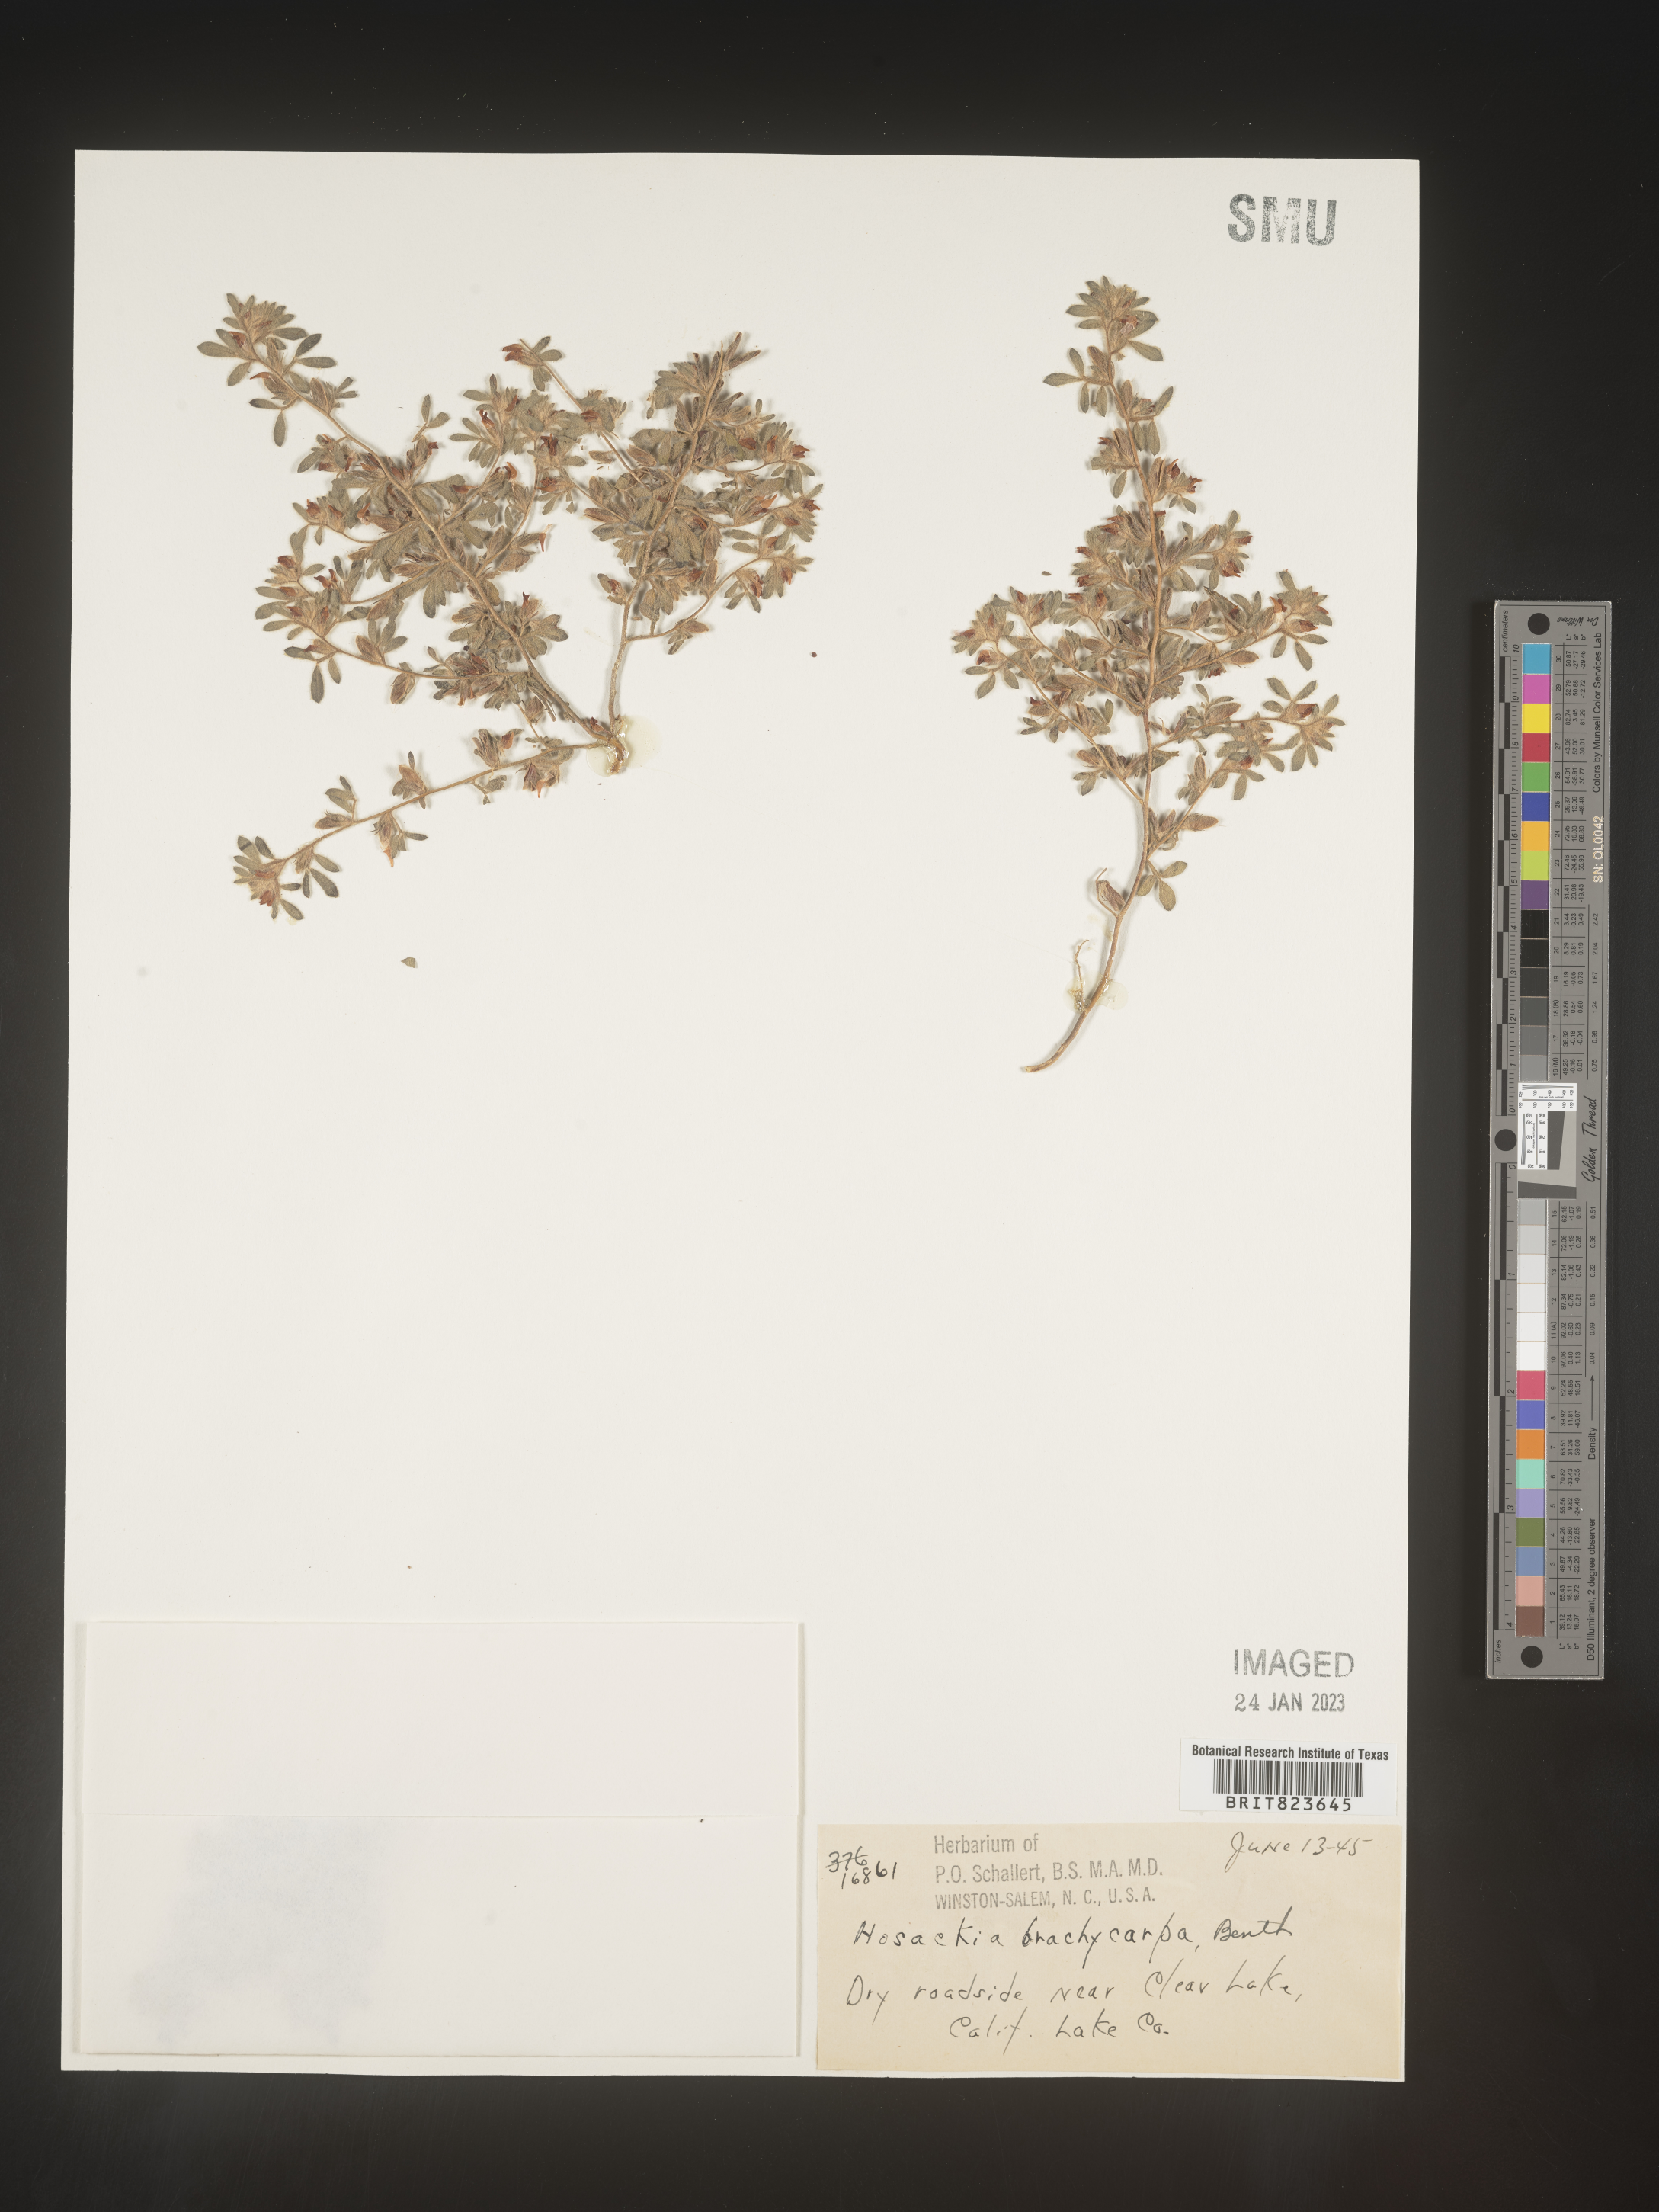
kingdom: Plantae
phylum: Tracheophyta
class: Magnoliopsida
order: Fabales
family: Fabaceae
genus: Lotus
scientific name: Lotus
